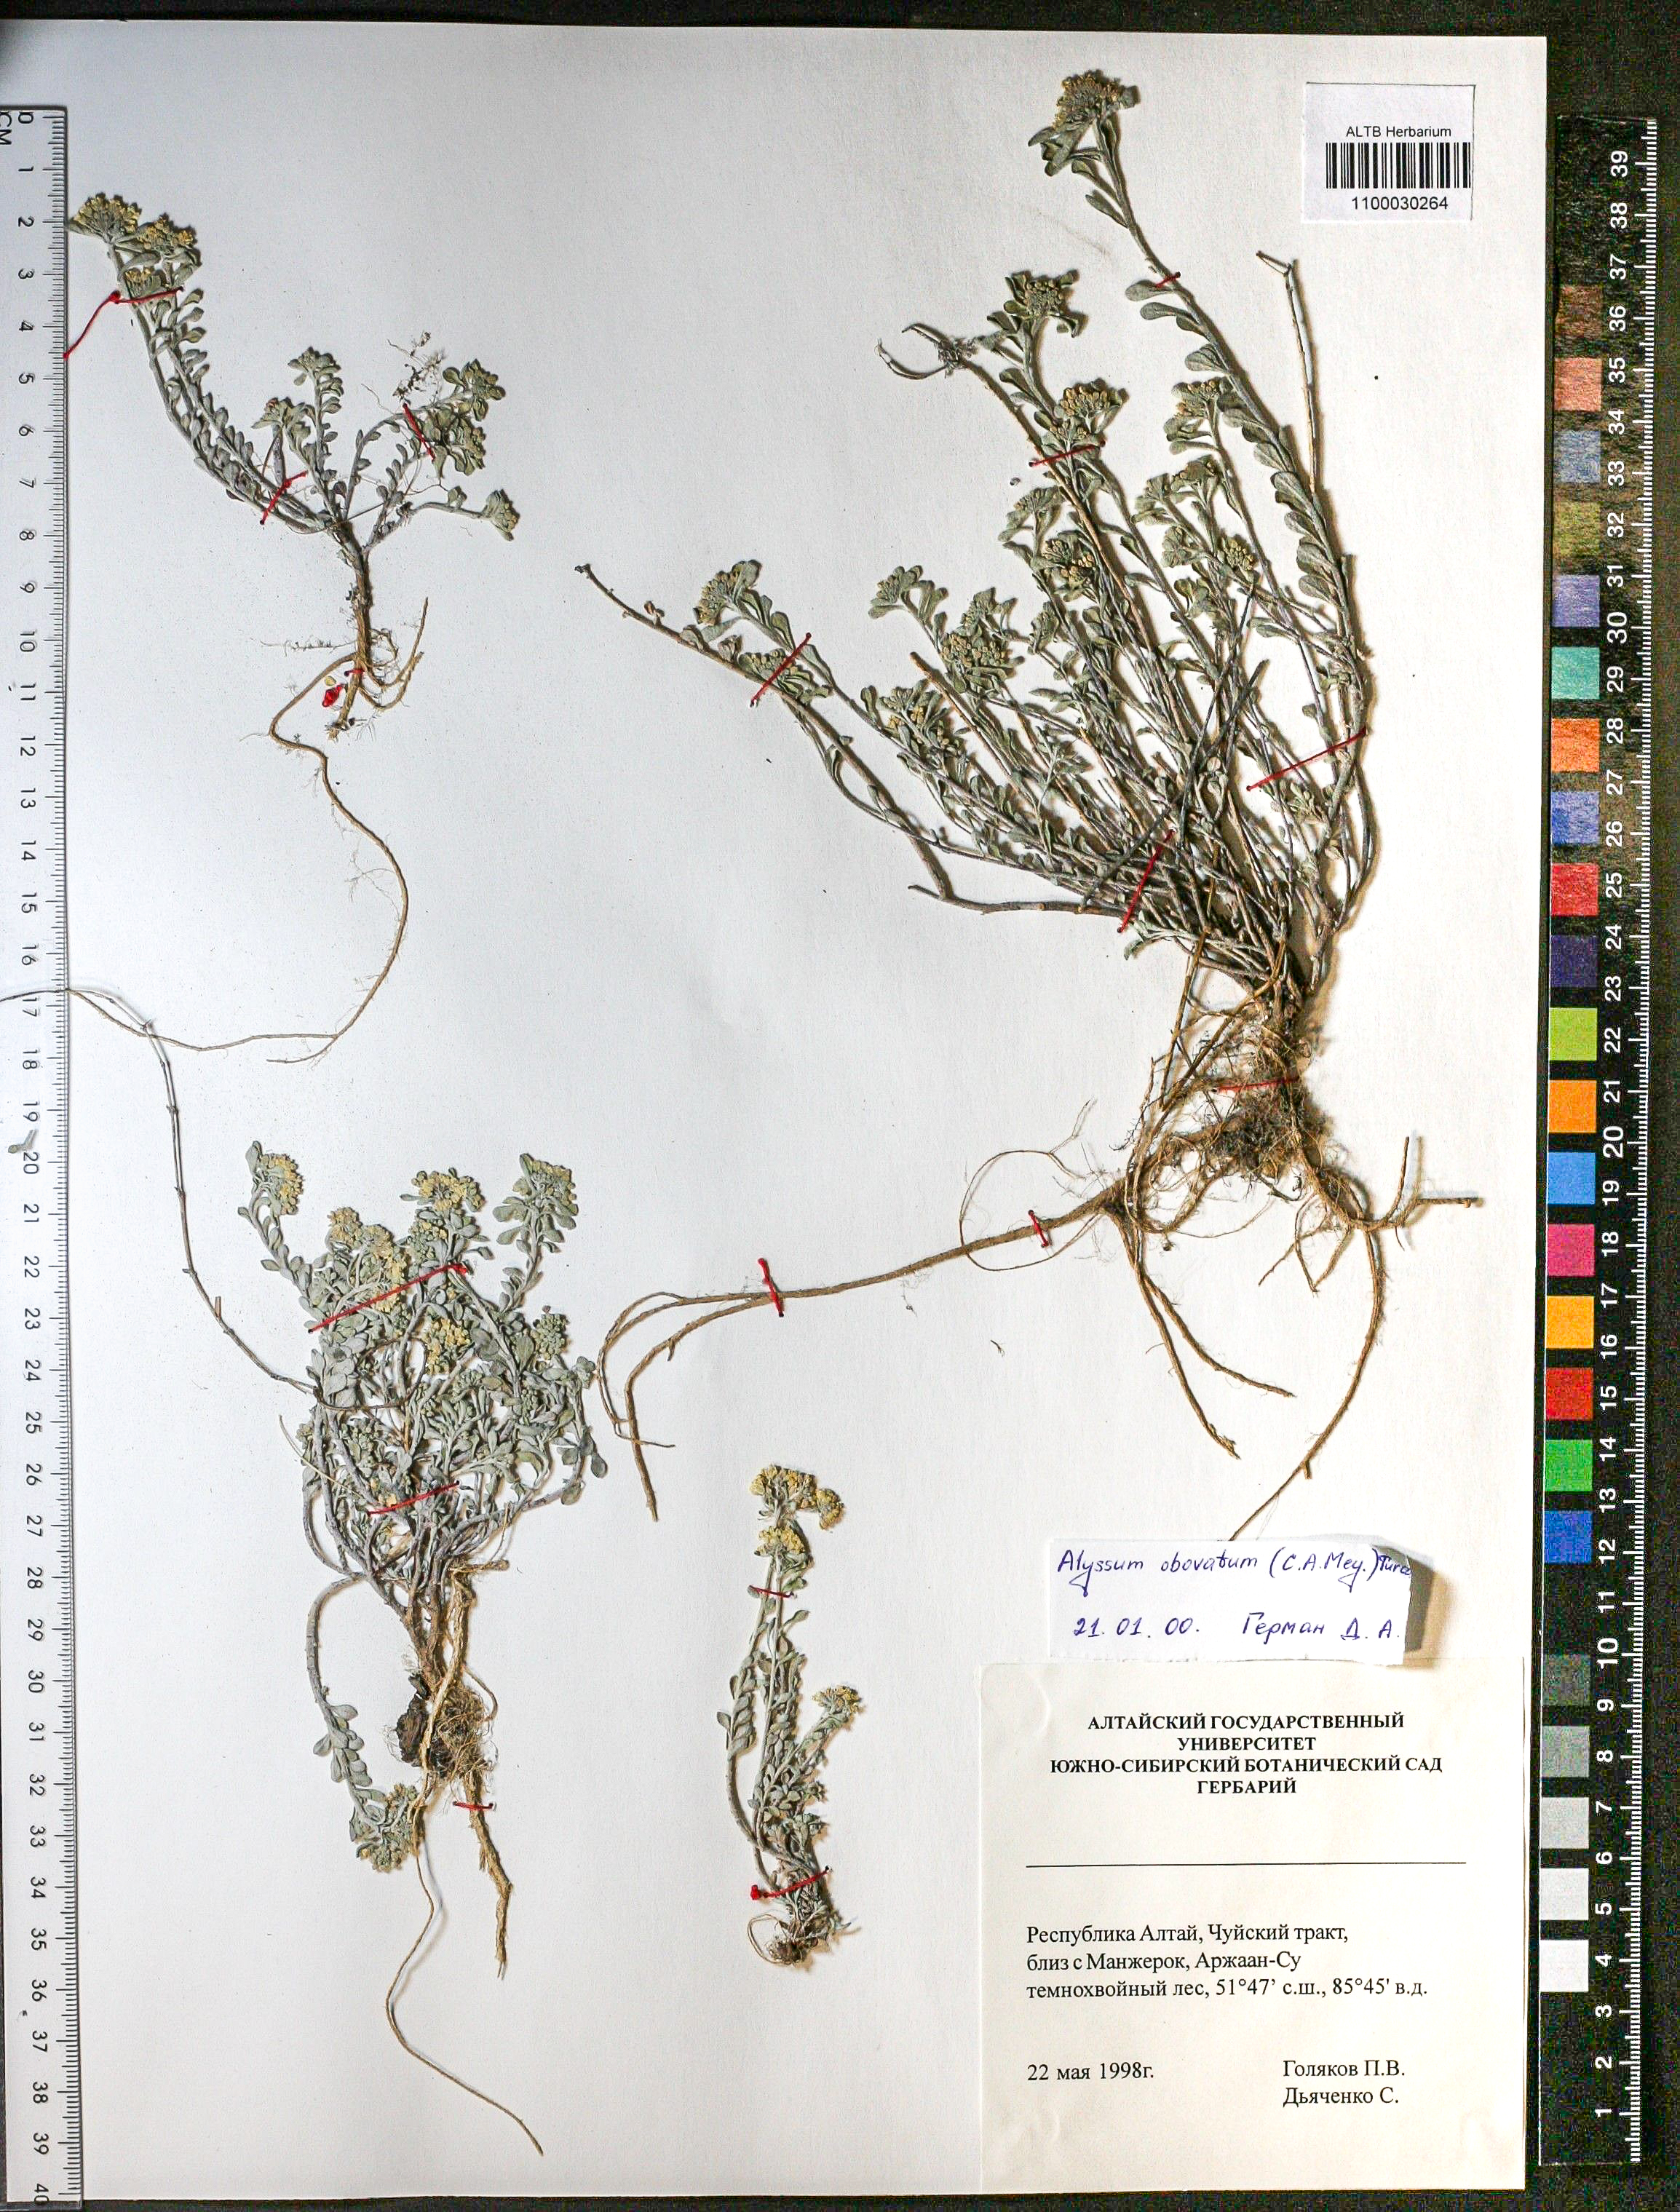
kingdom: Plantae
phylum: Tracheophyta
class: Magnoliopsida
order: Brassicales
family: Brassicaceae
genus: Odontarrhena
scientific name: Odontarrhena obovata
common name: American alyssum
